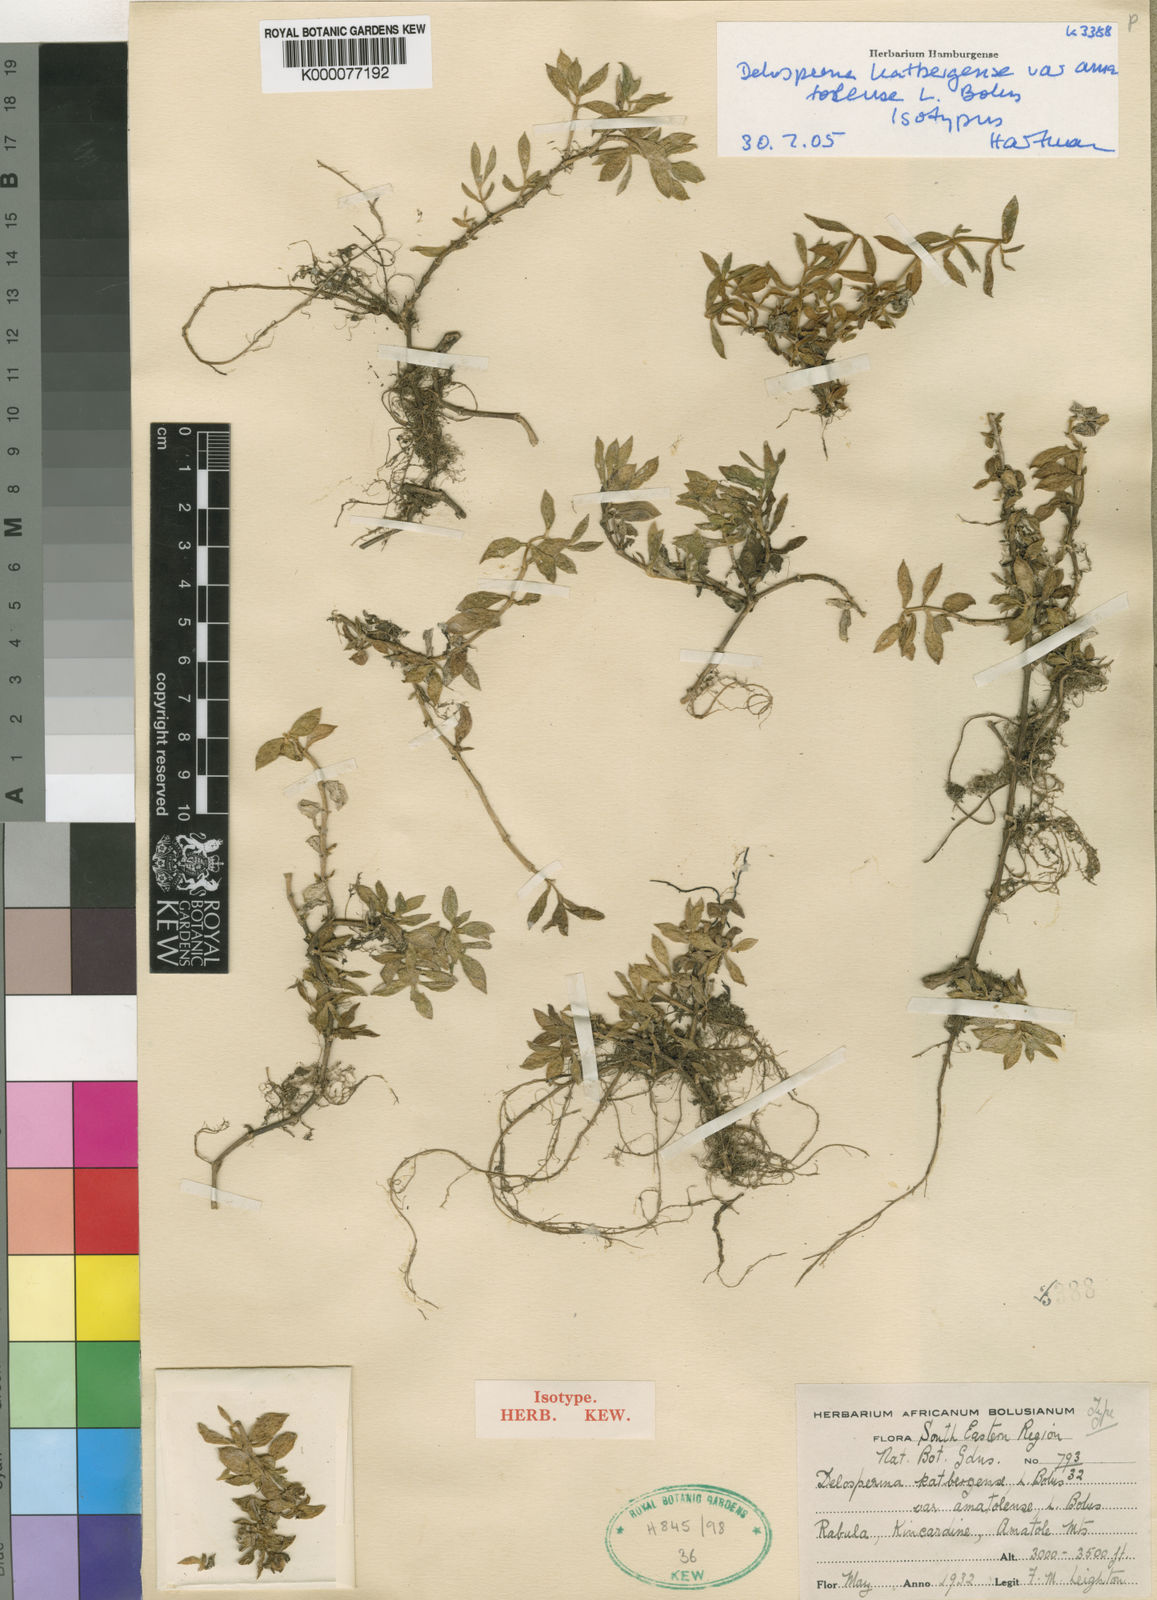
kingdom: Plantae
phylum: Tracheophyta
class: Magnoliopsida
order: Caryophyllales
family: Aizoaceae
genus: Delosperma
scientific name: Delosperma katbergense
